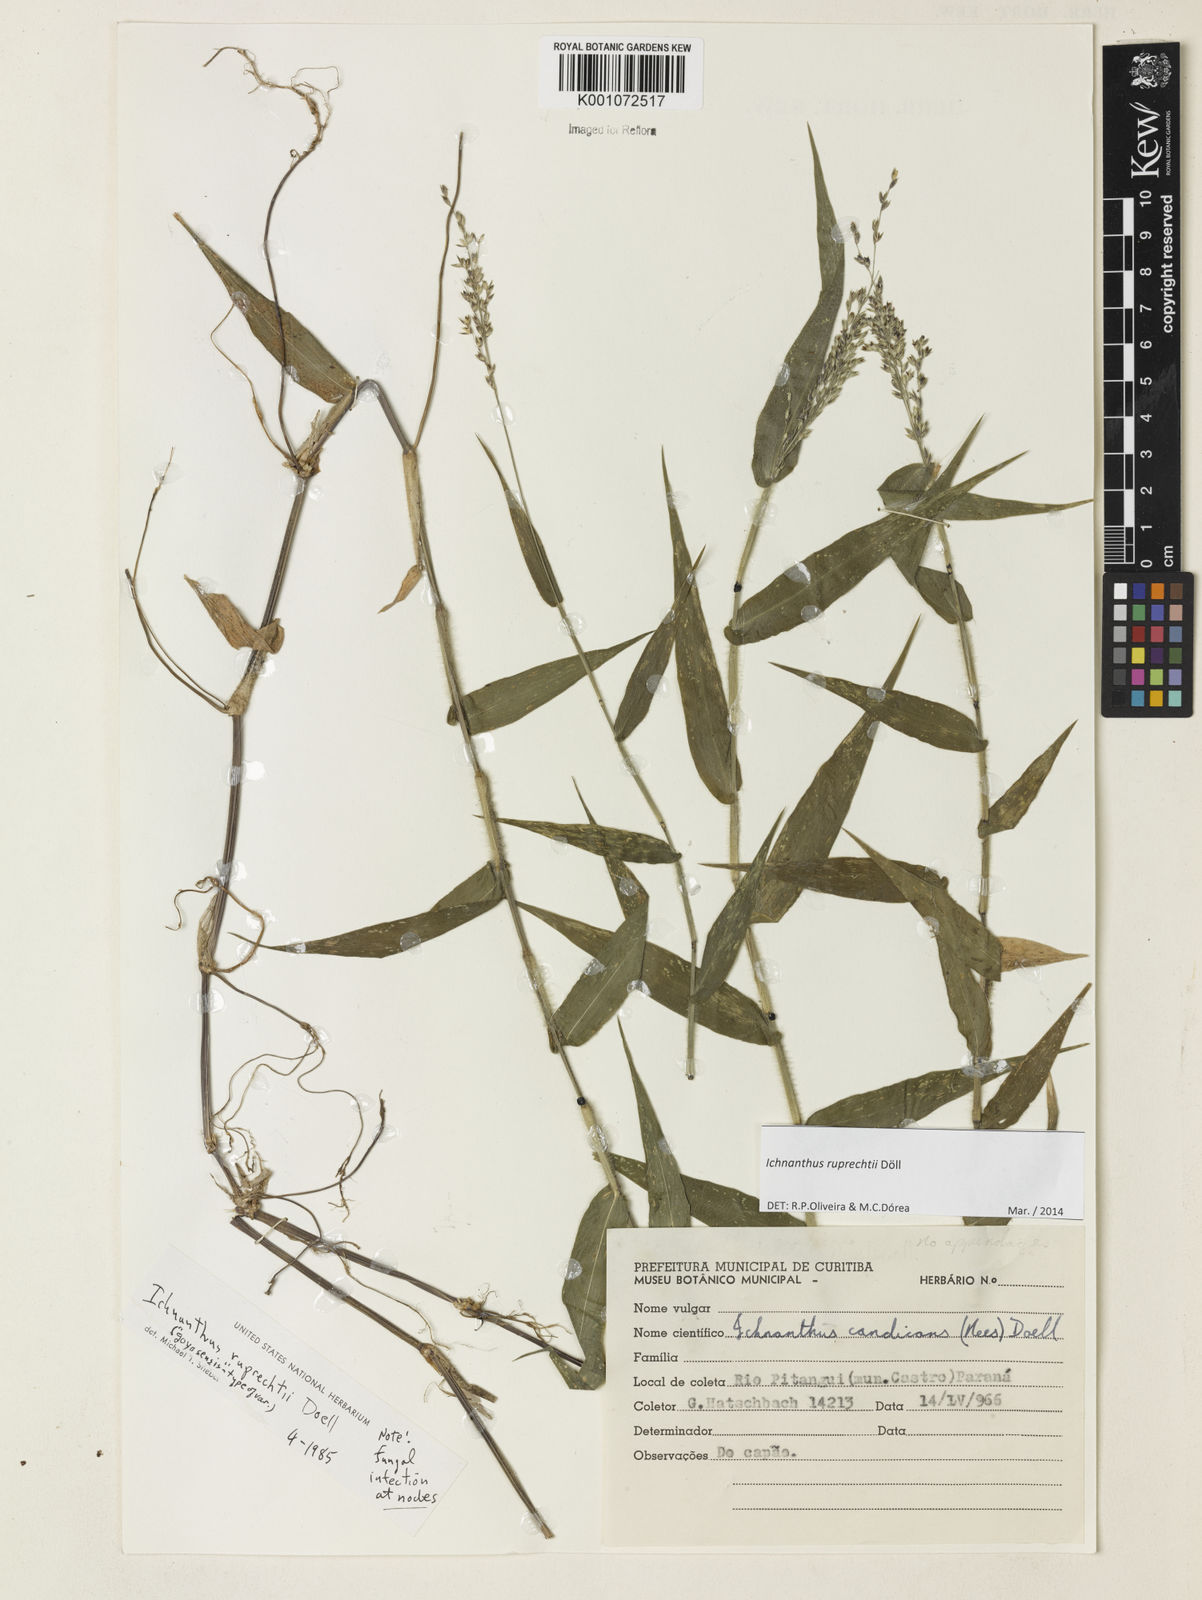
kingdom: Plantae
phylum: Tracheophyta
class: Liliopsida
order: Poales
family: Poaceae
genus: Ichnanthus
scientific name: Ichnanthus
